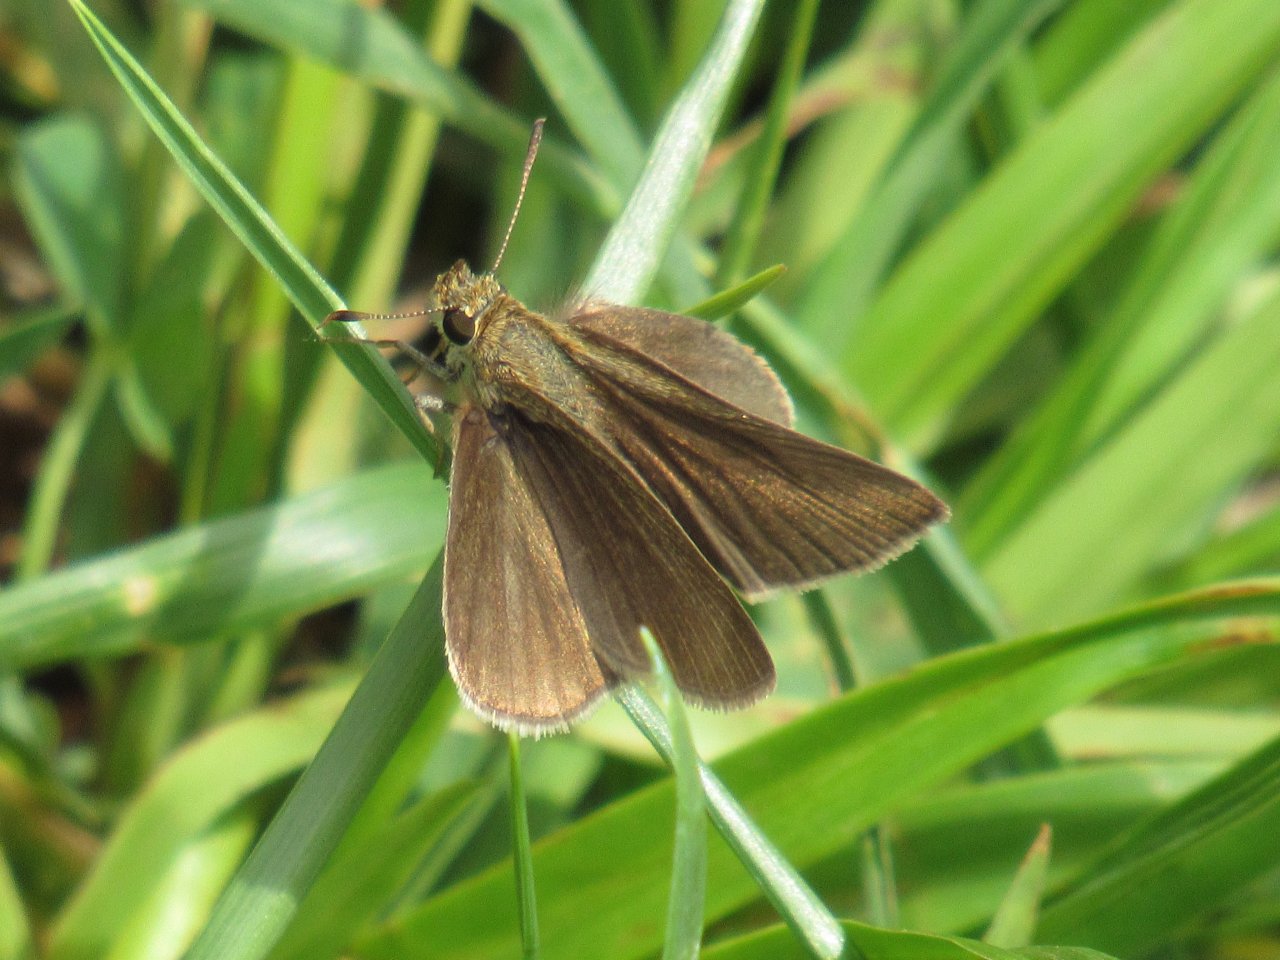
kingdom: Animalia
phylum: Arthropoda
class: Insecta
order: Lepidoptera
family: Hesperiidae
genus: Nastra
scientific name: Nastra lherminier
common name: Swarthy Skipper
